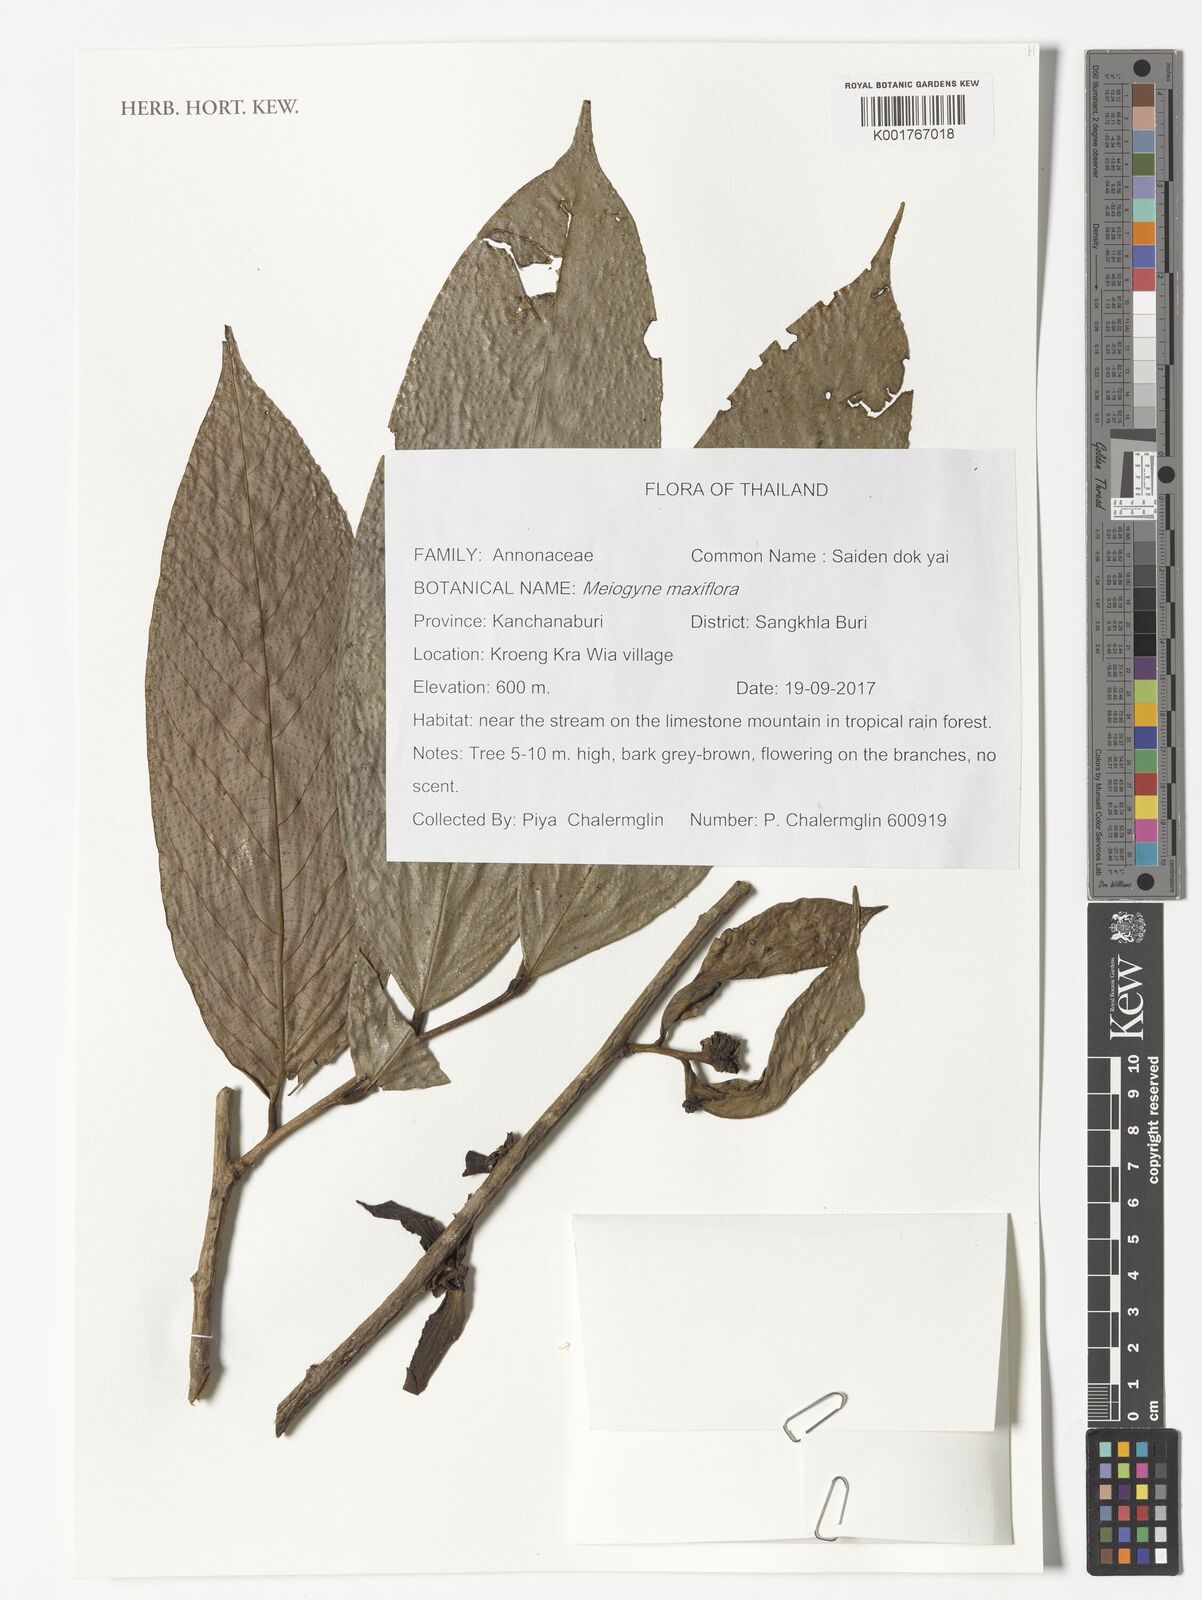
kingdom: Plantae
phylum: Tracheophyta
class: Magnoliopsida
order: Magnoliales
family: Annonaceae
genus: Meiogyne
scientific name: Meiogyne maxiflora
